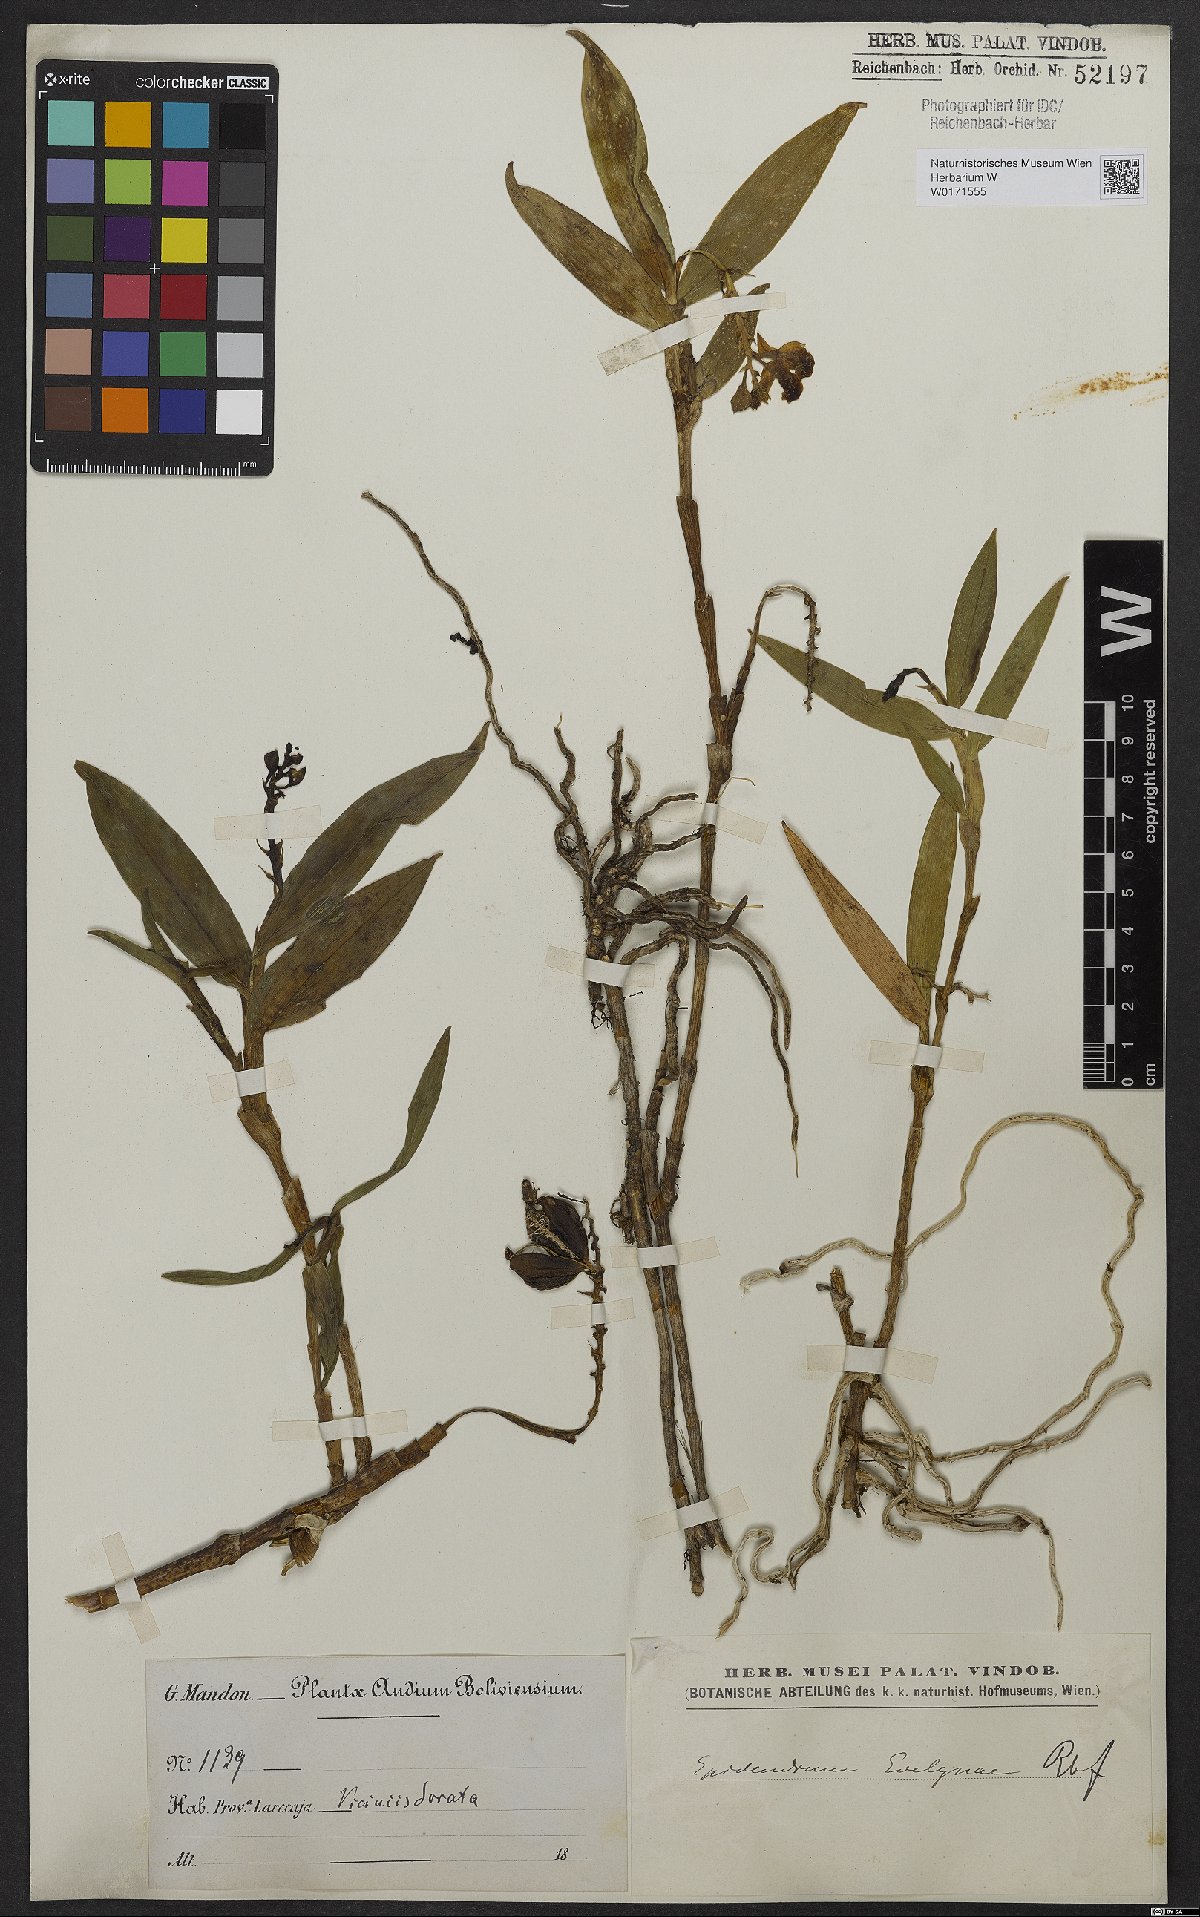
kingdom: Plantae
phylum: Tracheophyta
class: Liliopsida
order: Asparagales
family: Orchidaceae
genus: Epidendrum
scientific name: Epidendrum evelynae
